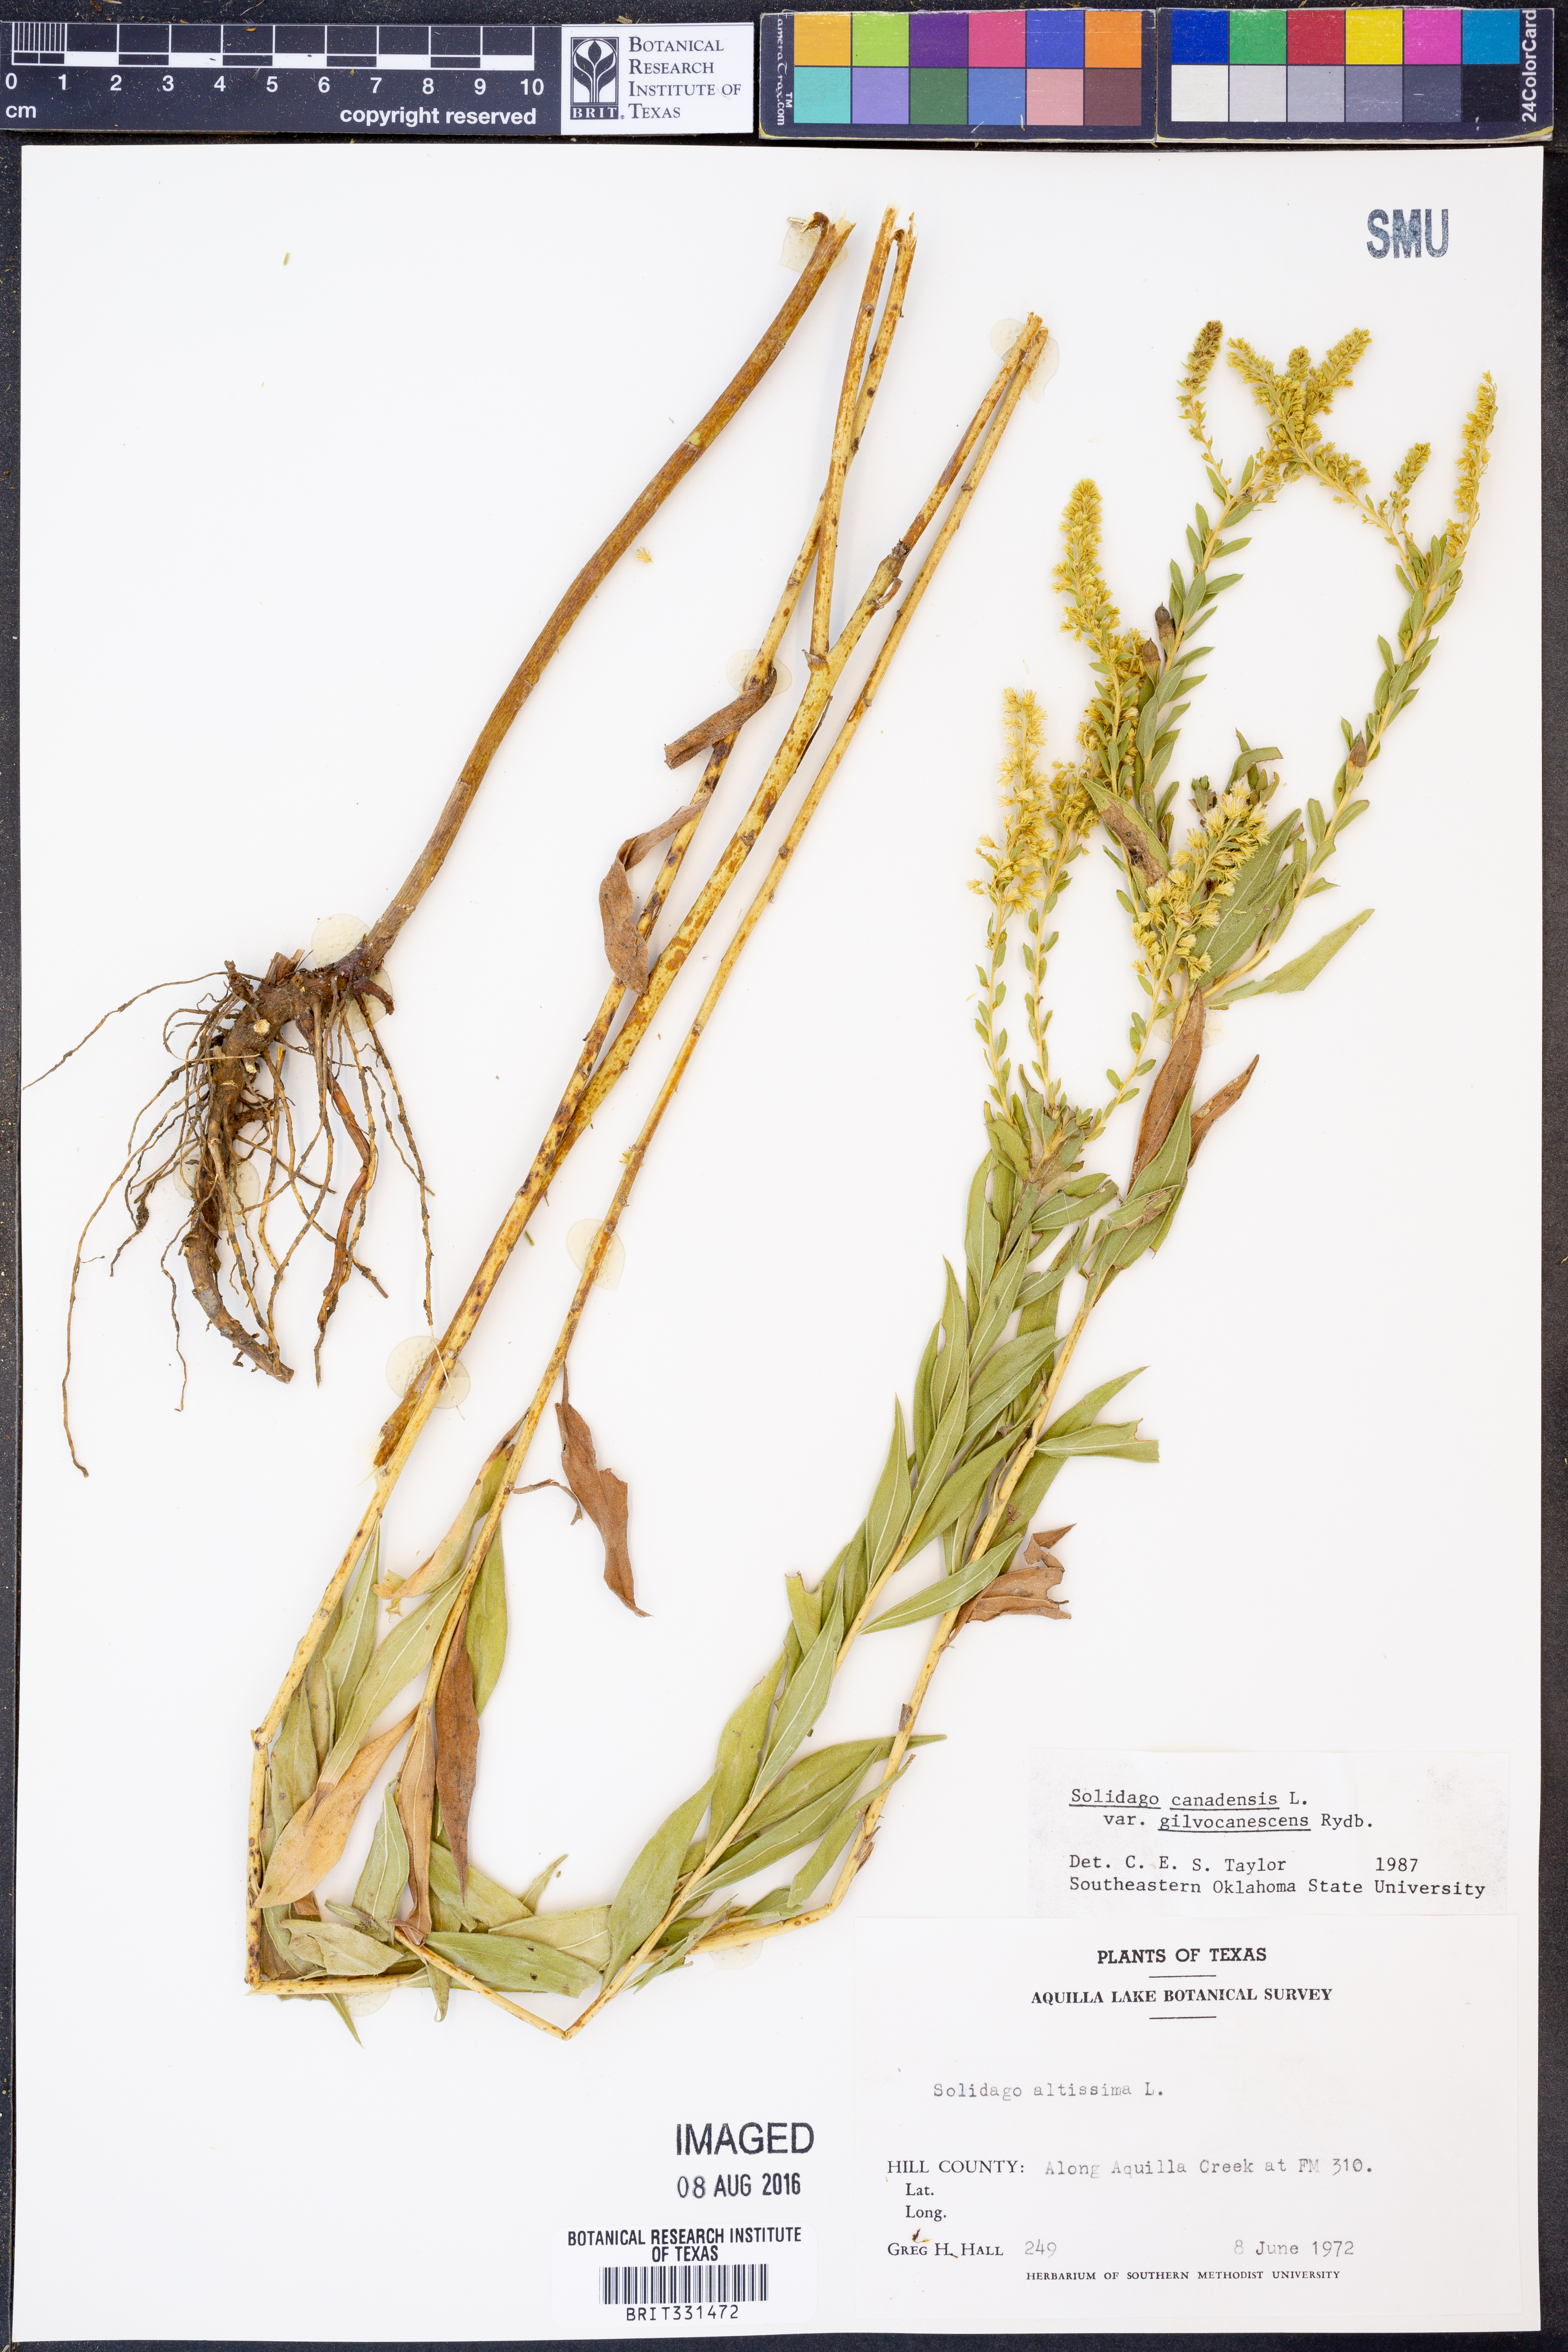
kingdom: Plantae
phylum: Tracheophyta
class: Magnoliopsida
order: Asterales
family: Asteraceae
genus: Solidago
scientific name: Solidago altissima
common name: Late goldenrod
